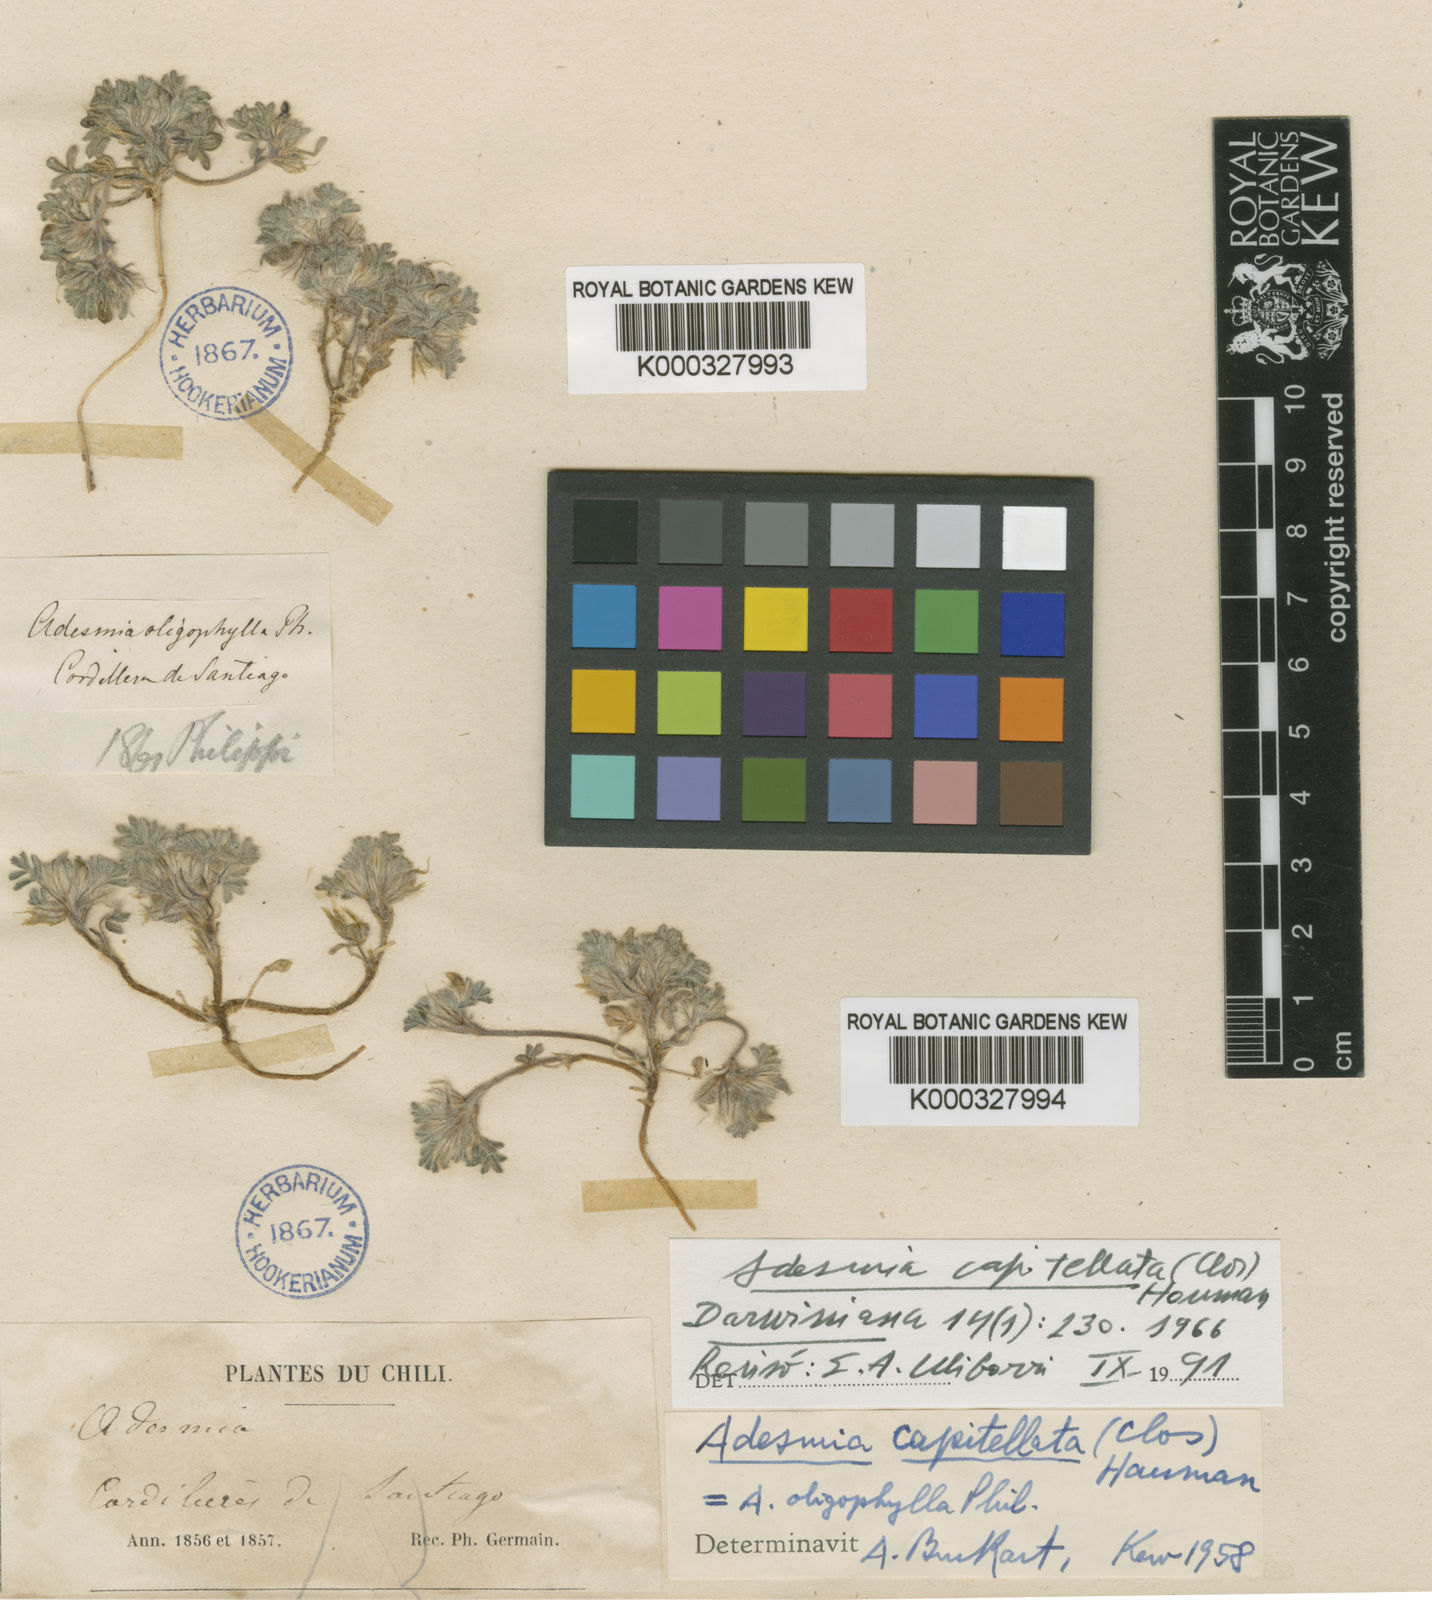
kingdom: Plantae
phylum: Tracheophyta
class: Magnoliopsida
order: Fabales
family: Fabaceae
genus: Adesmia
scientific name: Adesmia capitellata
